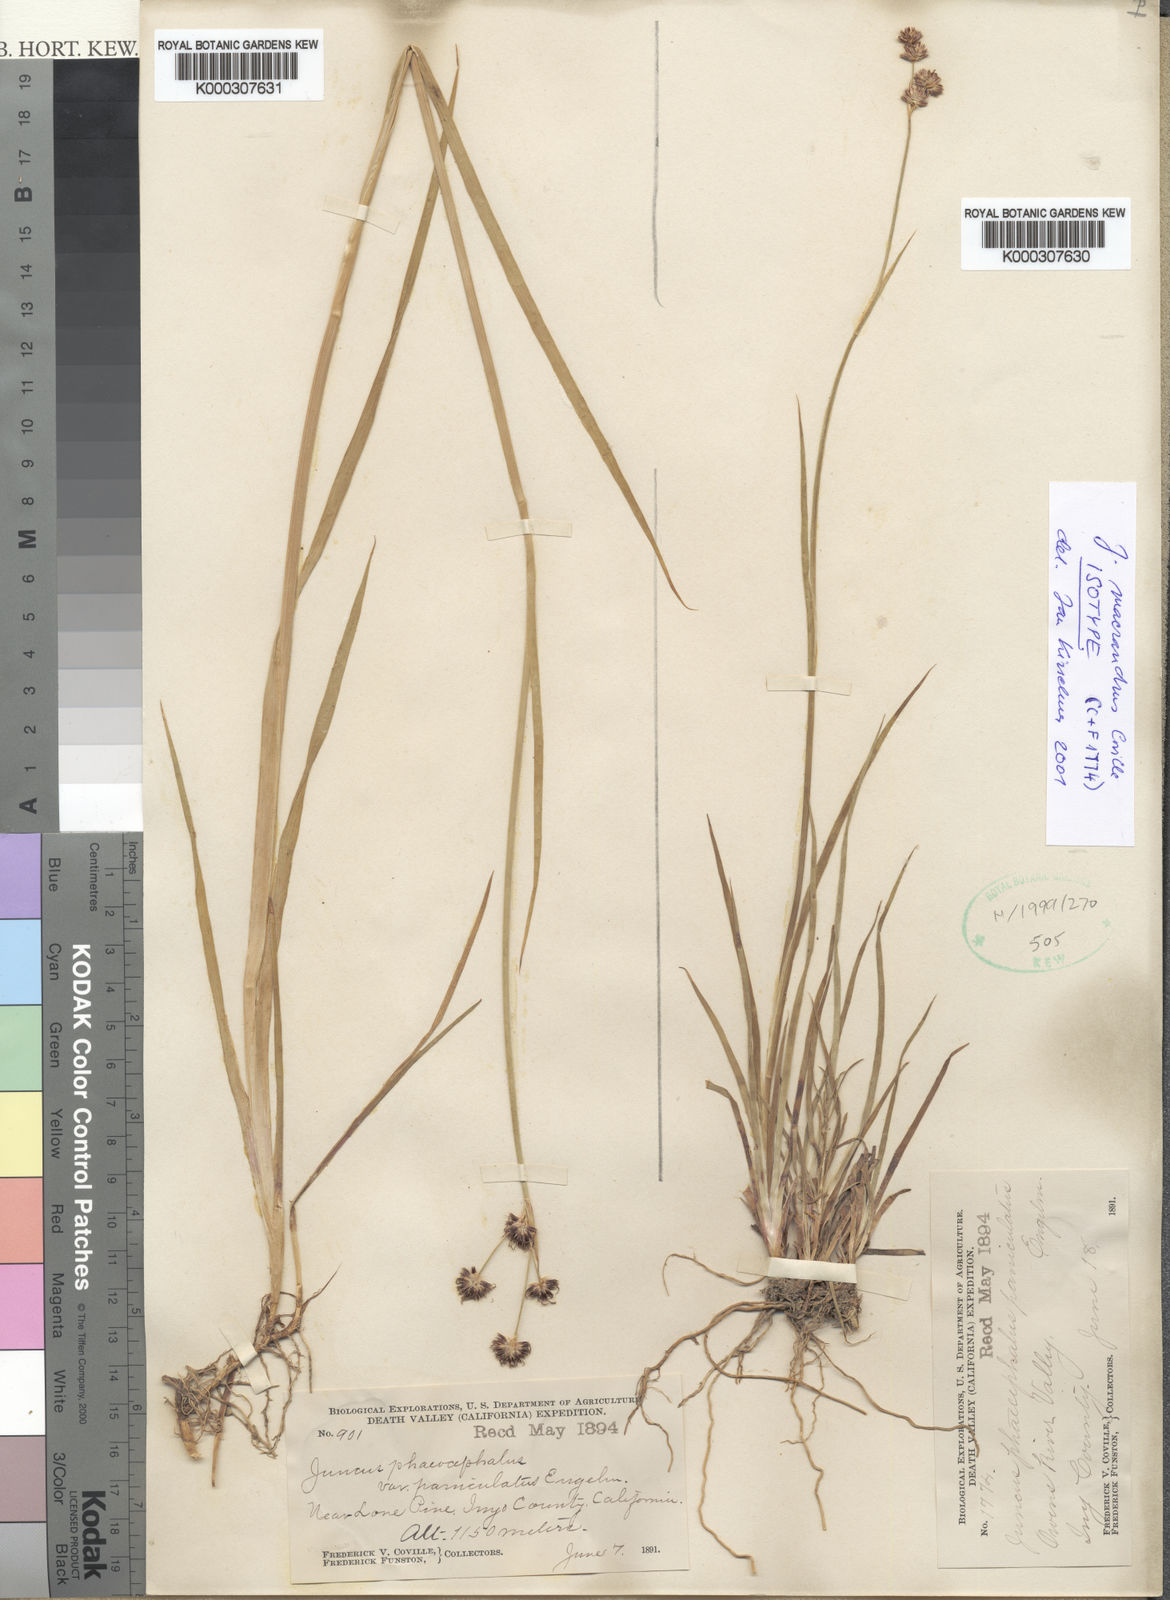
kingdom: Plantae
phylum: Tracheophyta
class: Liliopsida
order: Poales
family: Juncaceae
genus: Juncus
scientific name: Juncus phaeocephalus
